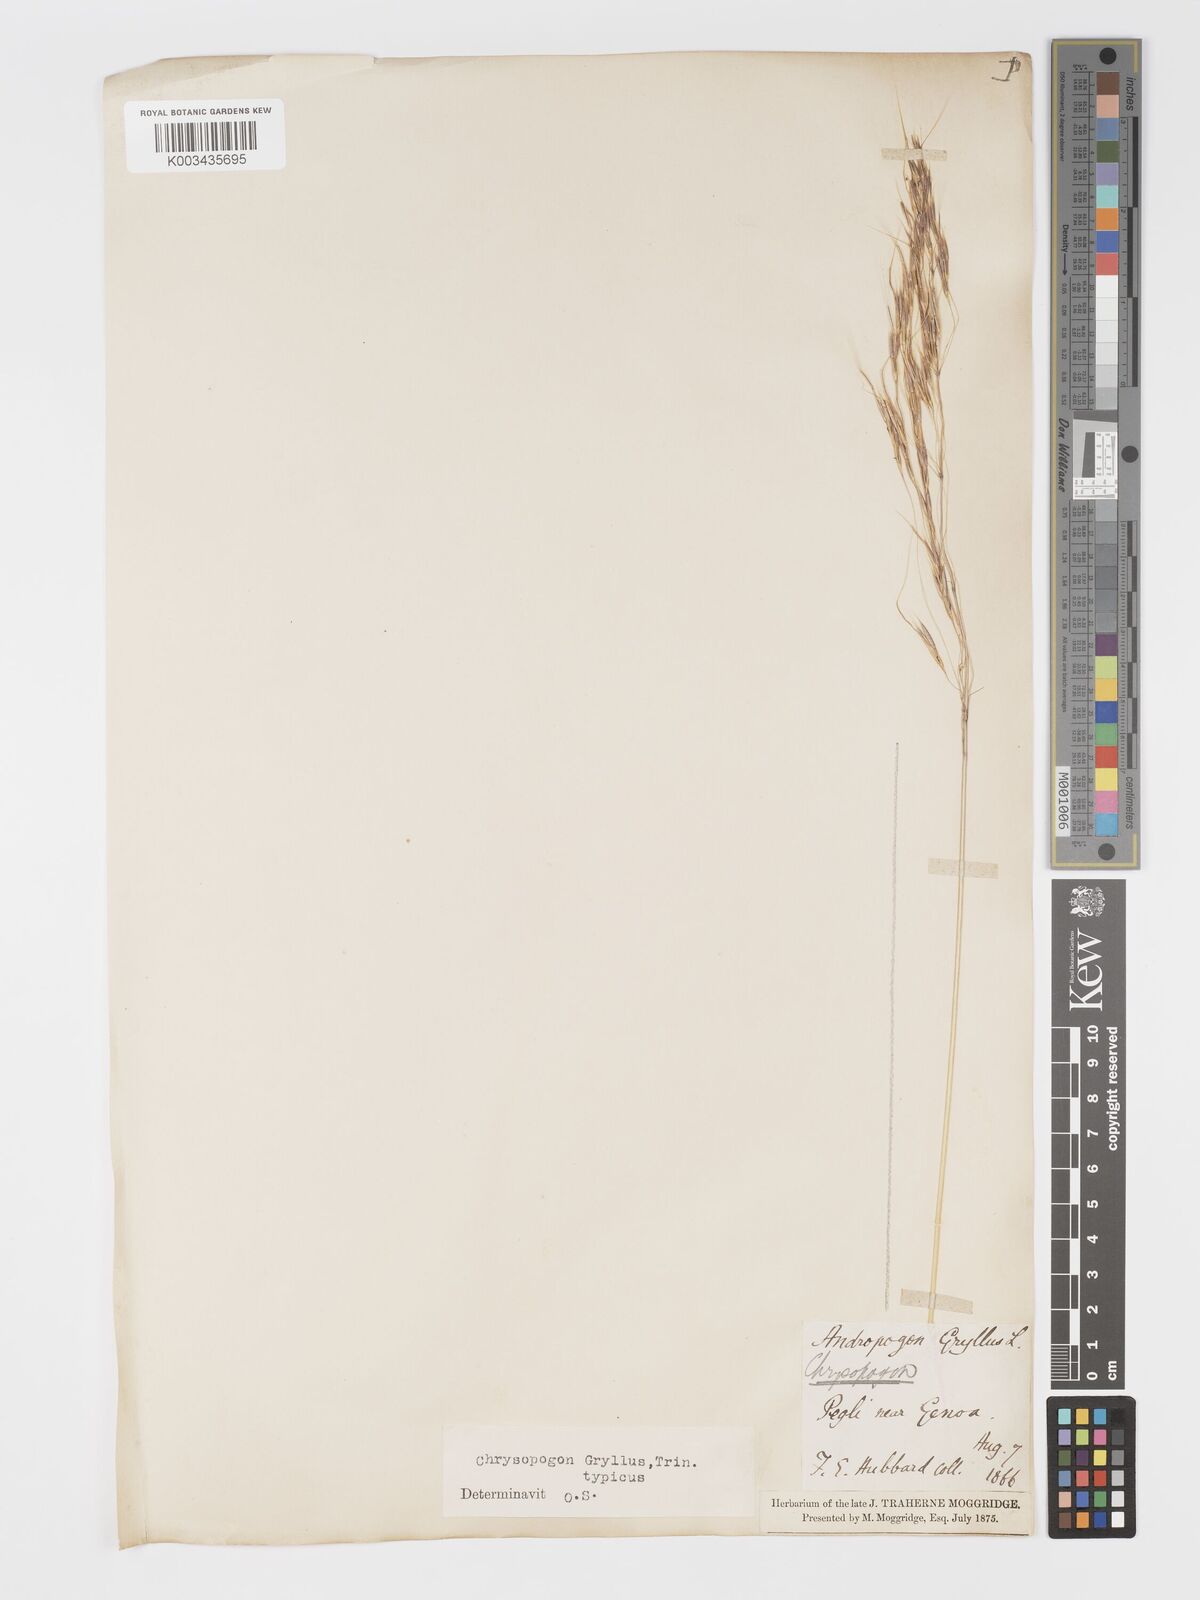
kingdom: Plantae
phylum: Tracheophyta
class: Liliopsida
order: Poales
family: Poaceae
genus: Chrysopogon
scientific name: Chrysopogon gryllus
